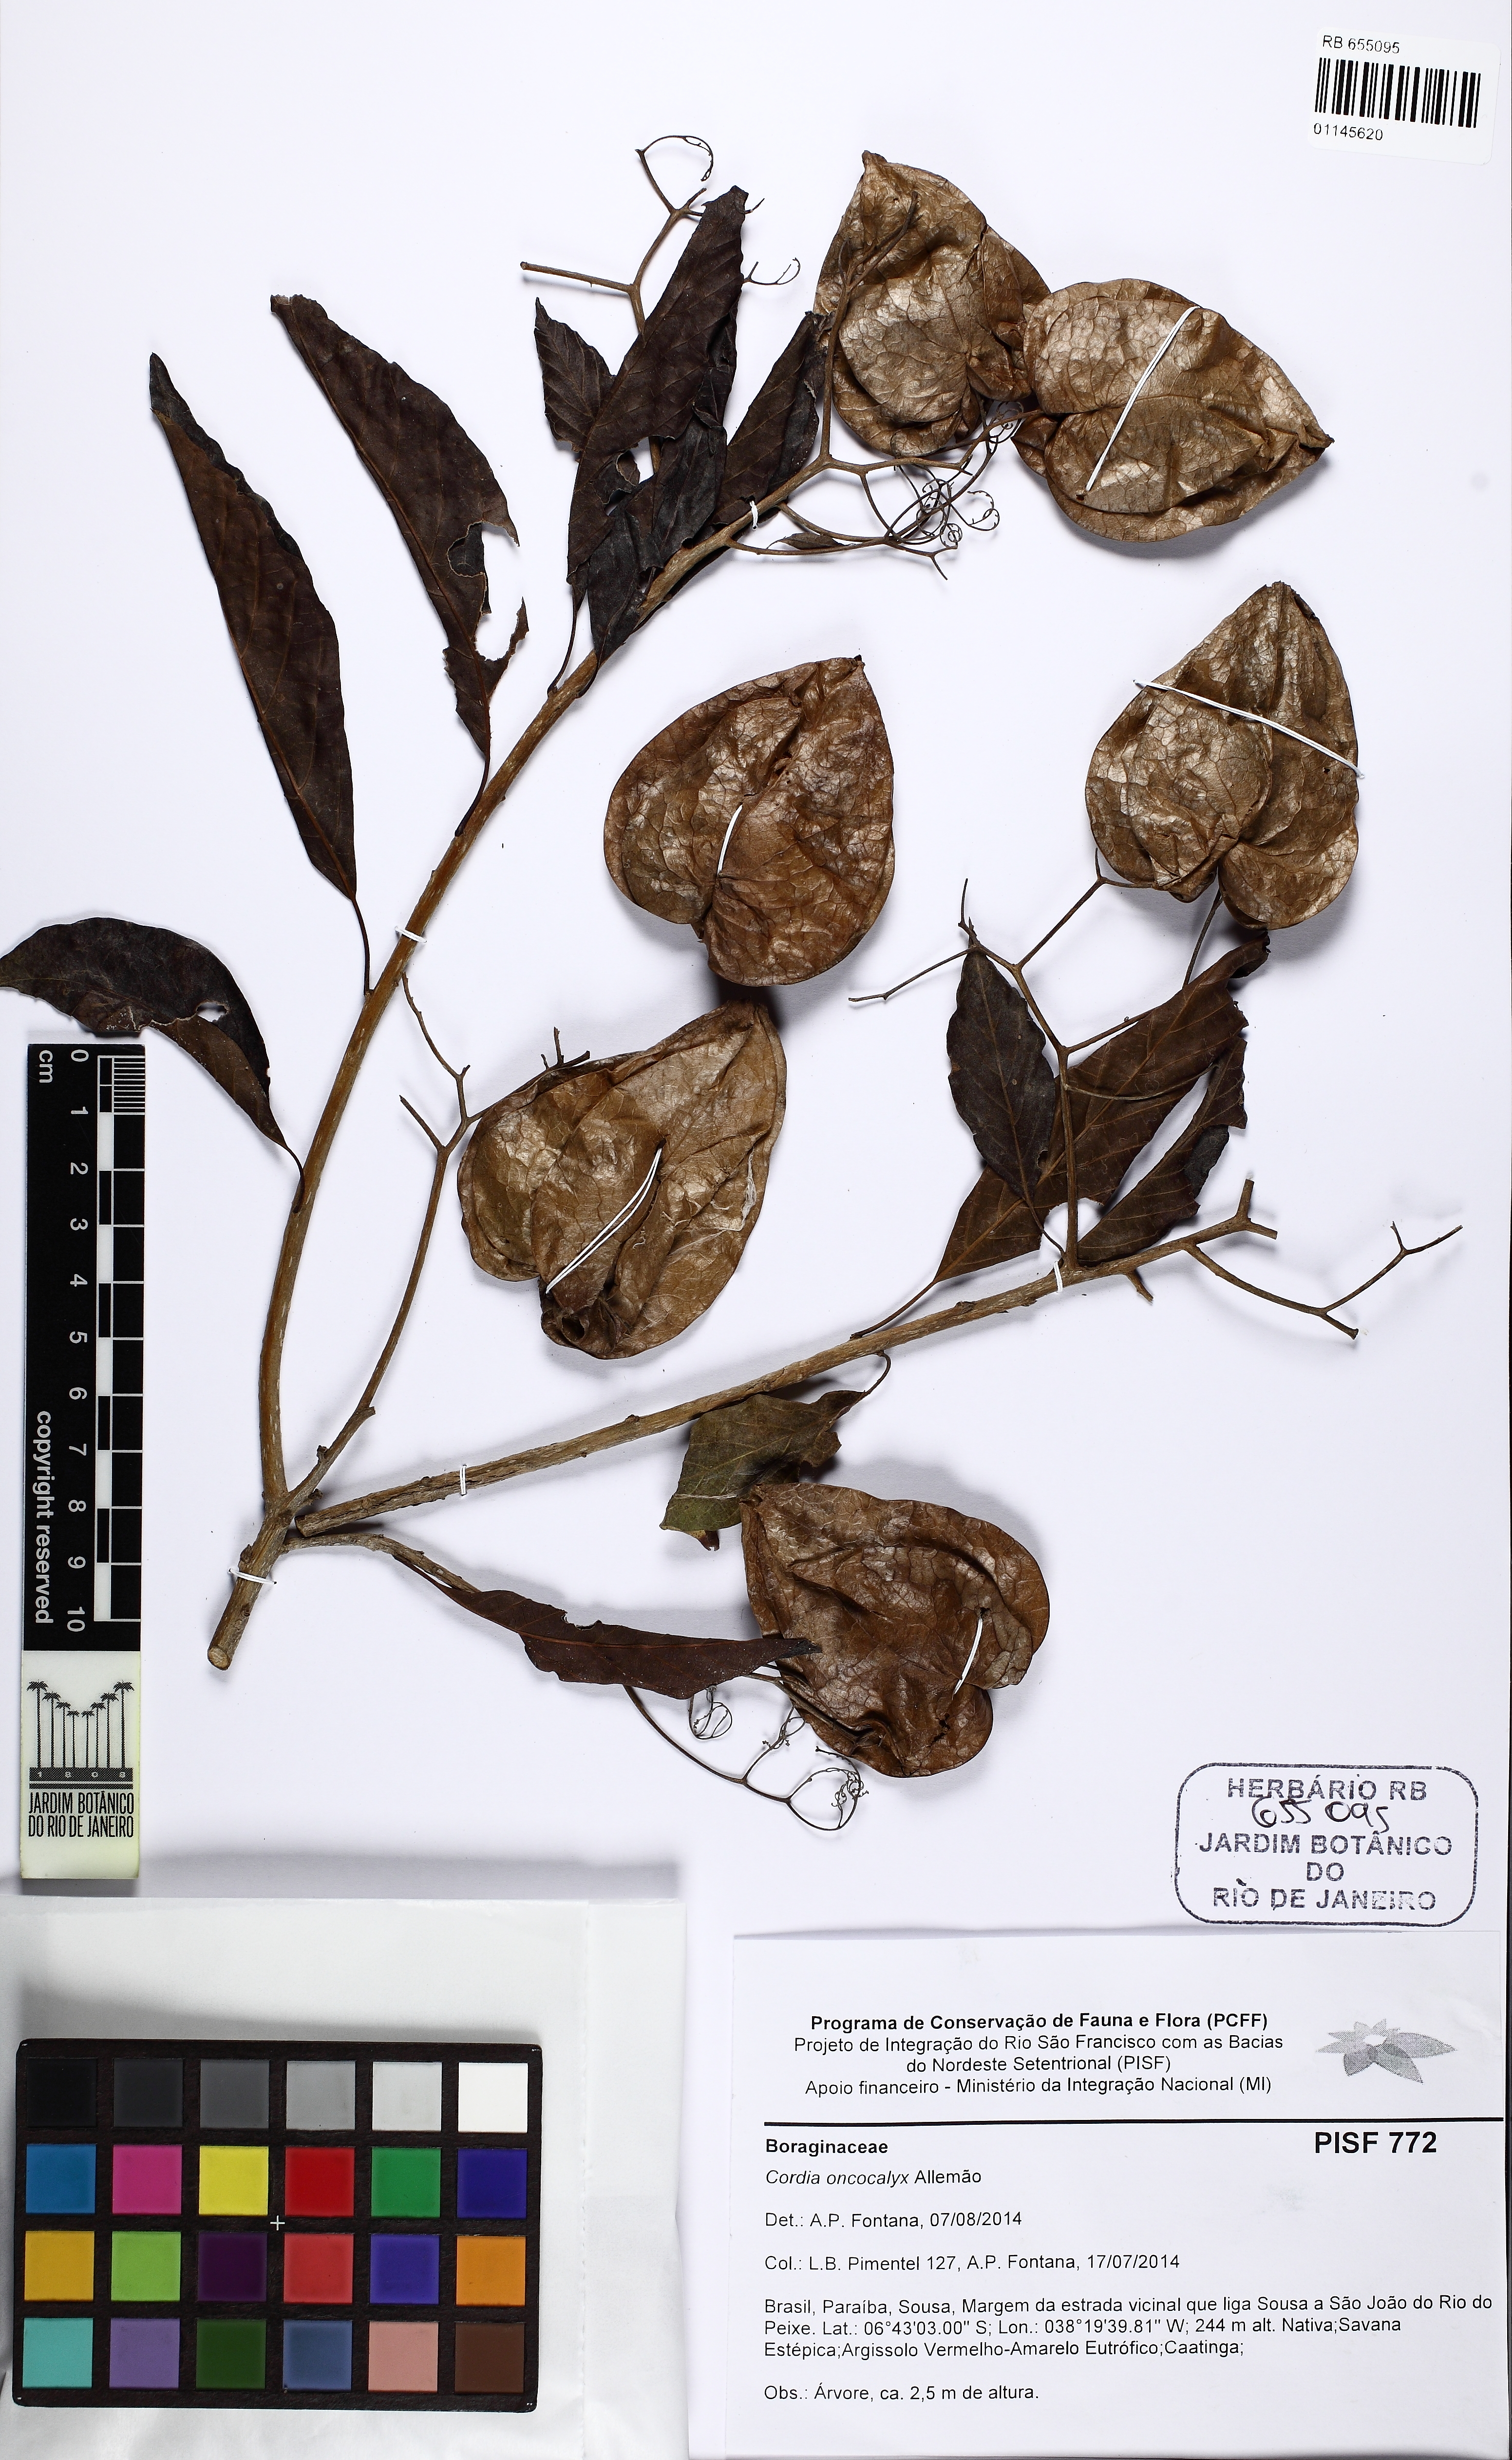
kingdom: Plantae
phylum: Tracheophyta
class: Magnoliopsida
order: Boraginales
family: Cordiaceae
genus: Cordia
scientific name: Cordia oncocalyx
